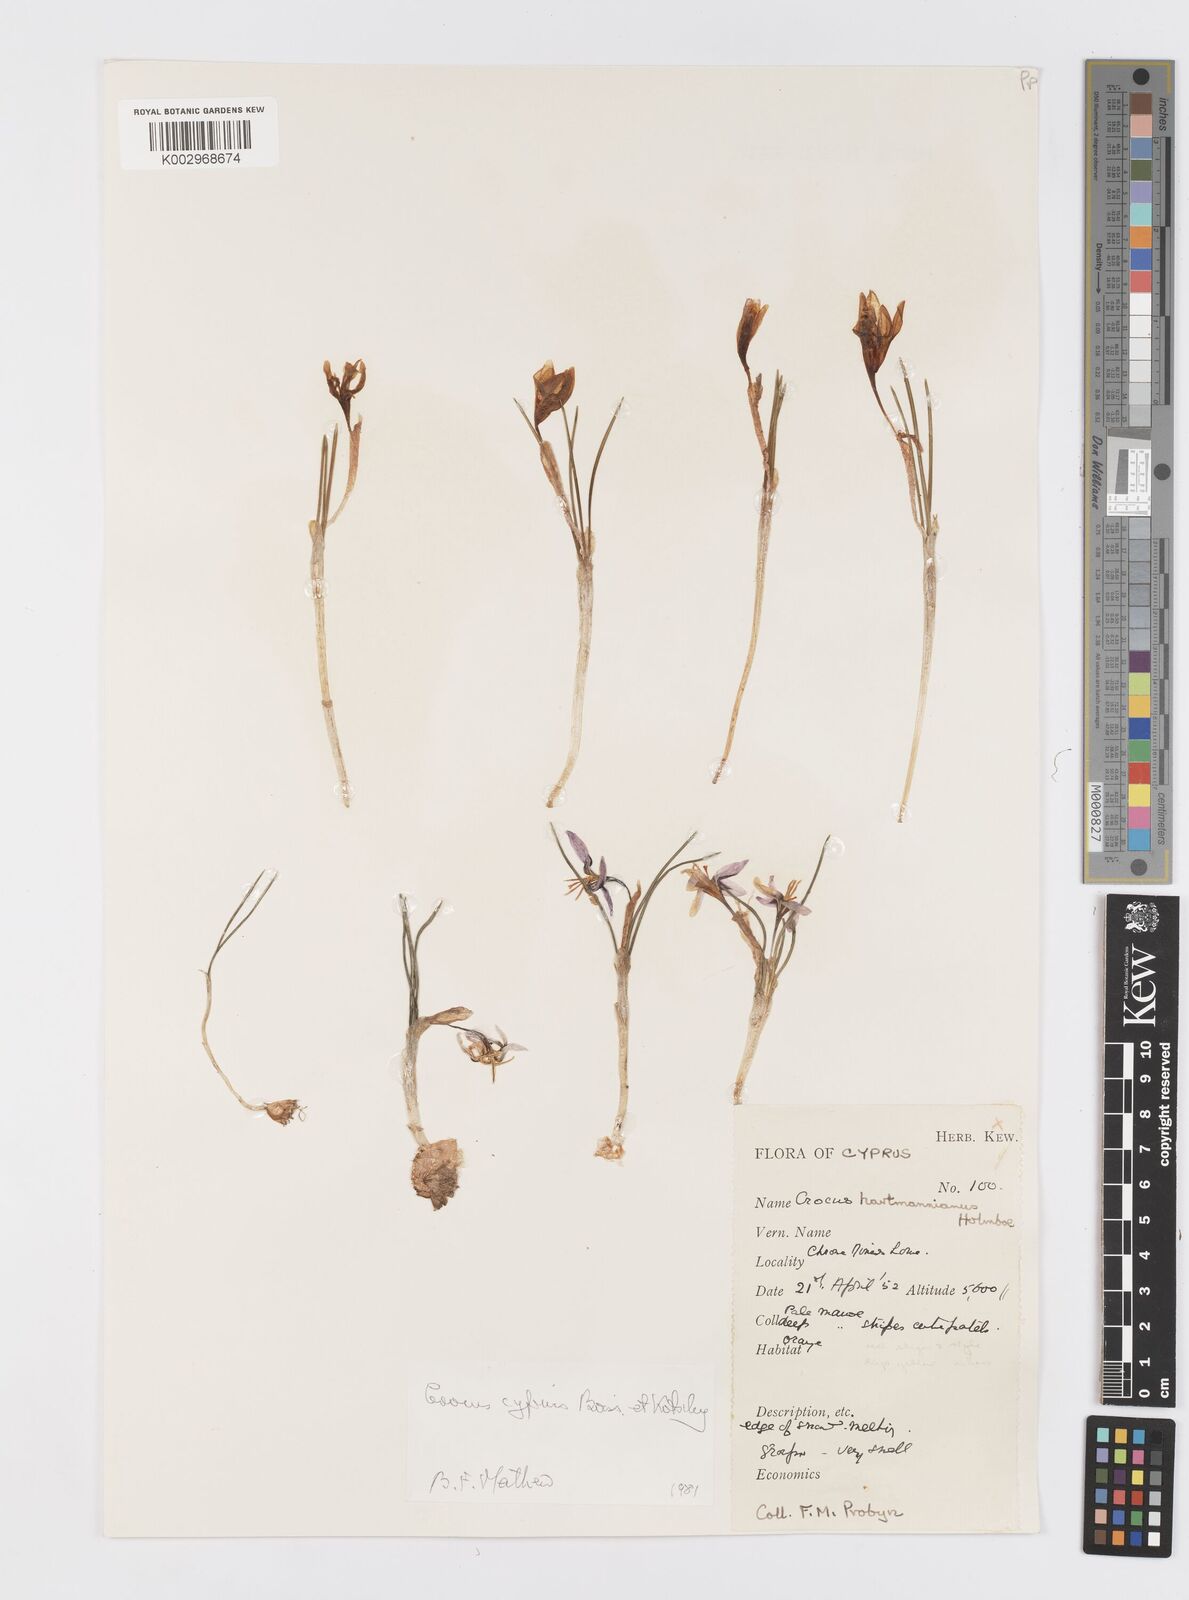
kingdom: Plantae
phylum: Tracheophyta
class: Liliopsida
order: Asparagales
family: Iridaceae
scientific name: Iridaceae
